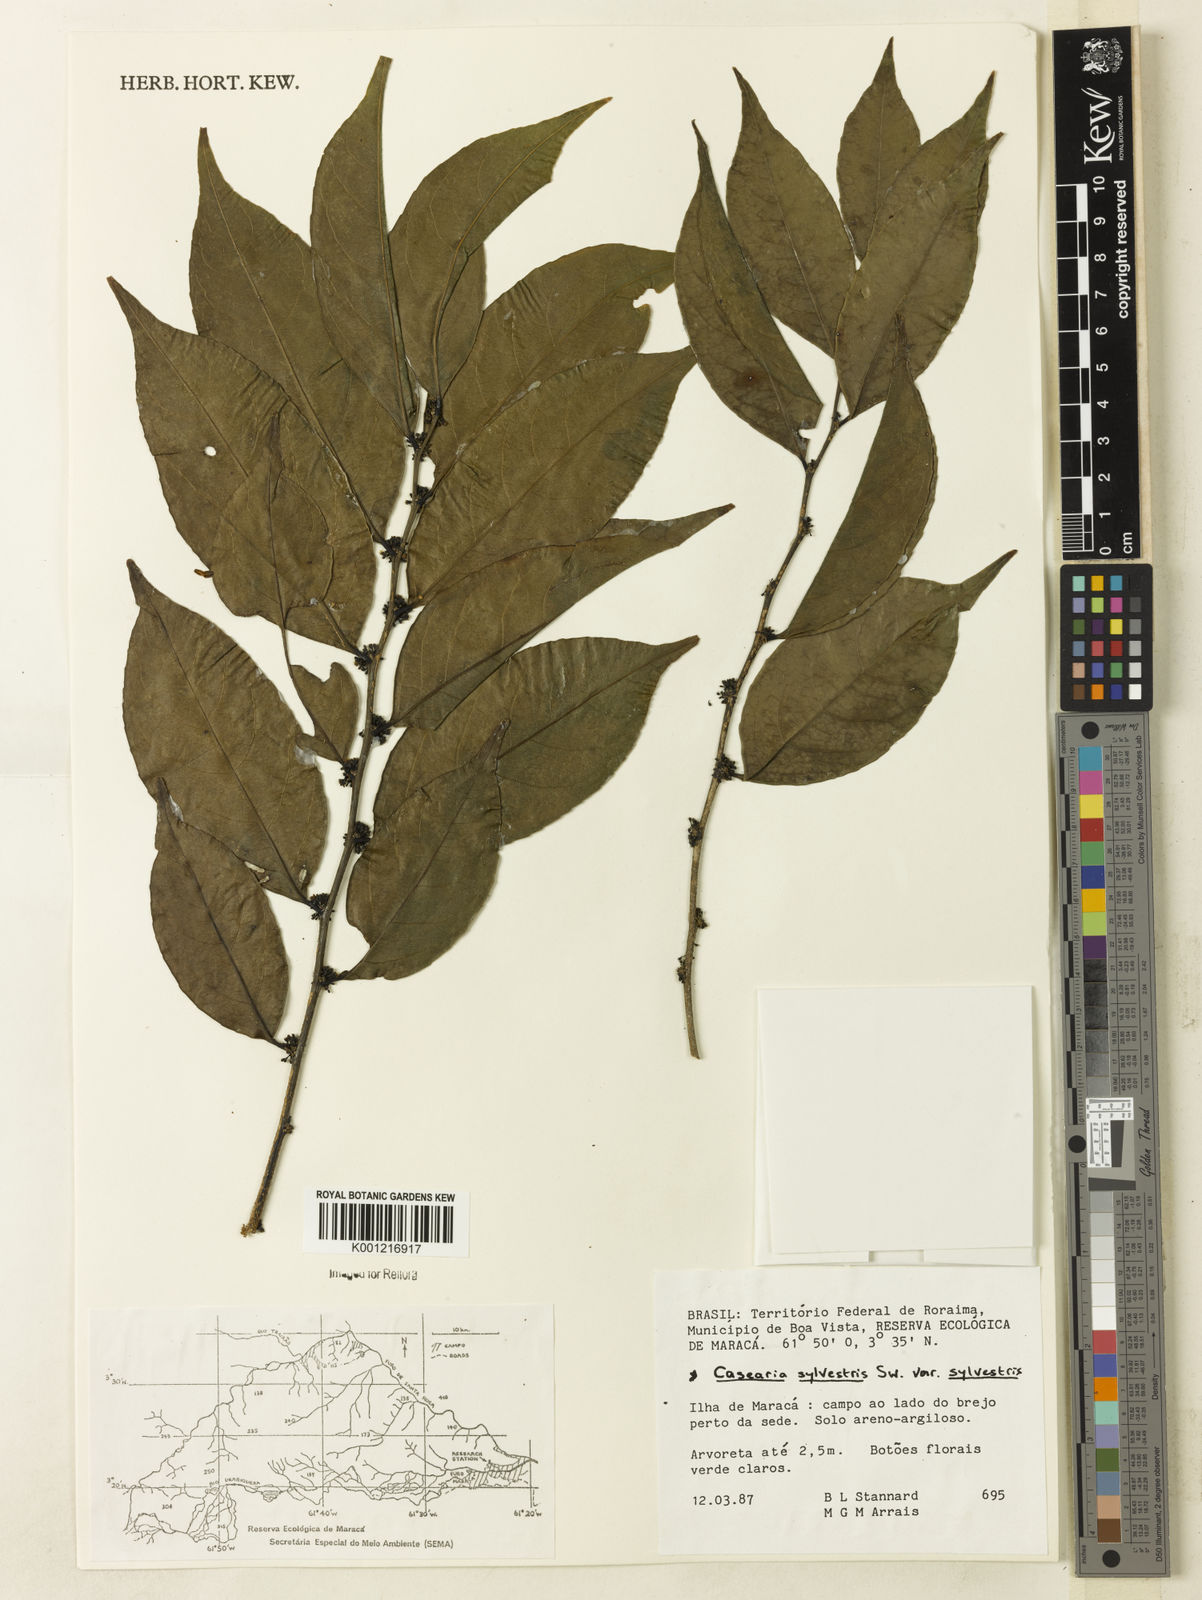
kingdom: Plantae
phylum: Tracheophyta
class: Magnoliopsida
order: Malpighiales
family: Salicaceae
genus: Casearia
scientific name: Casearia sylvestris
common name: Wild sage
